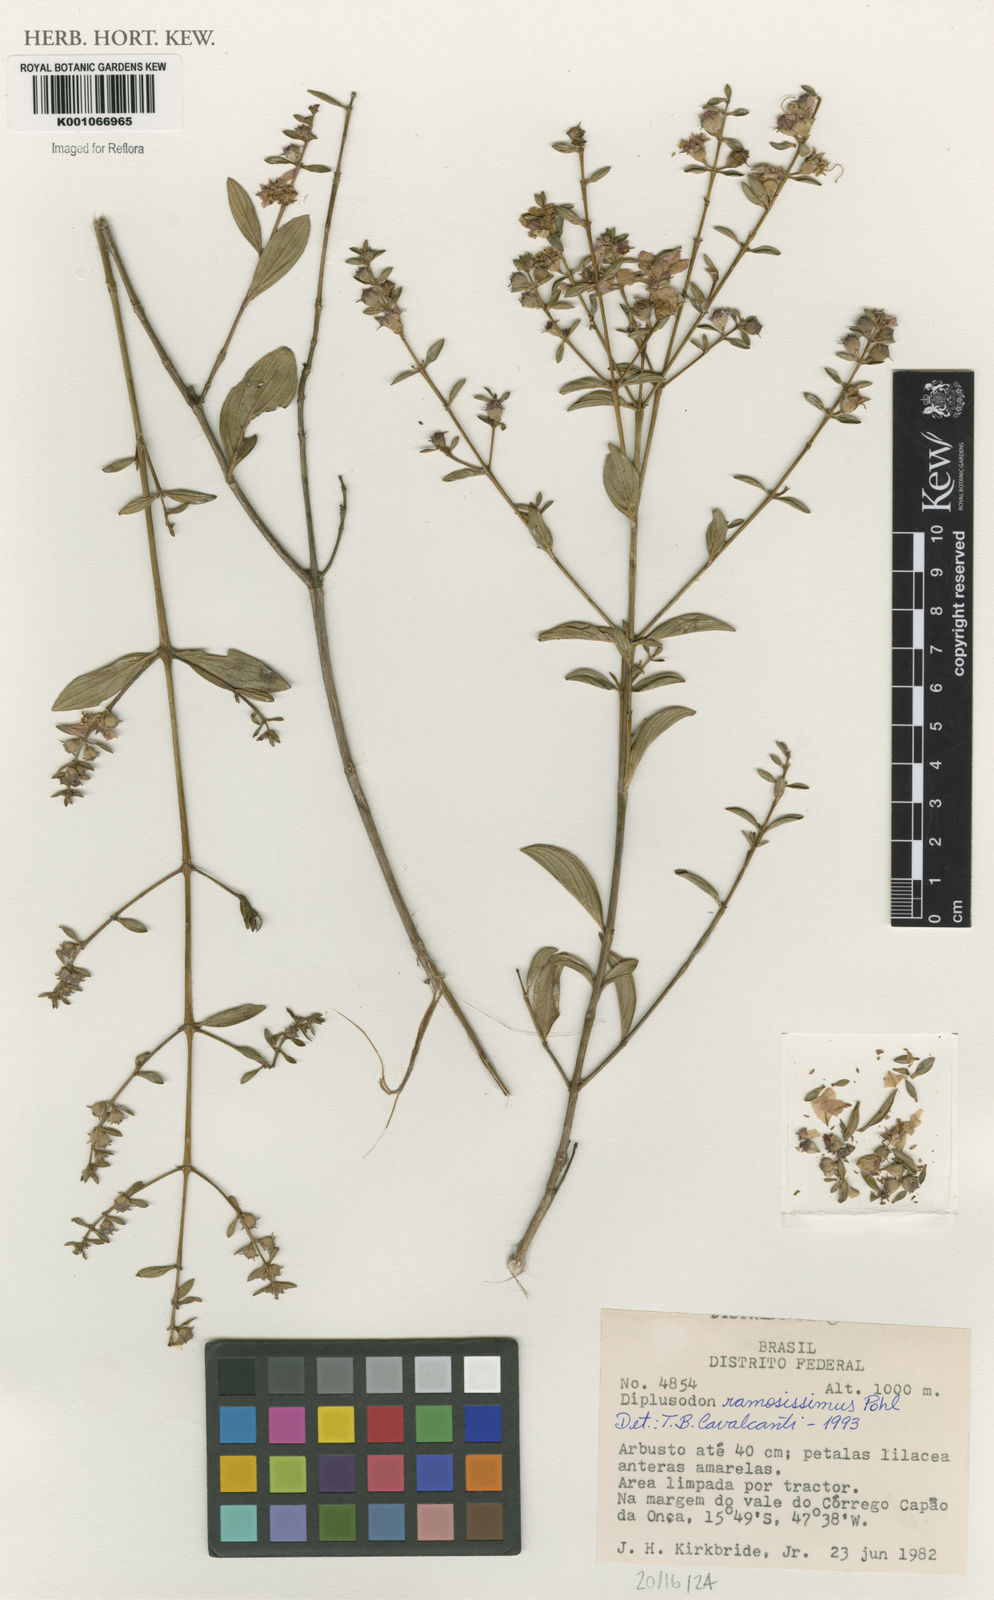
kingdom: Plantae
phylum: Tracheophyta
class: Magnoliopsida
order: Myrtales
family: Lythraceae
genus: Diplusodon
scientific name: Diplusodon ramosissimus
